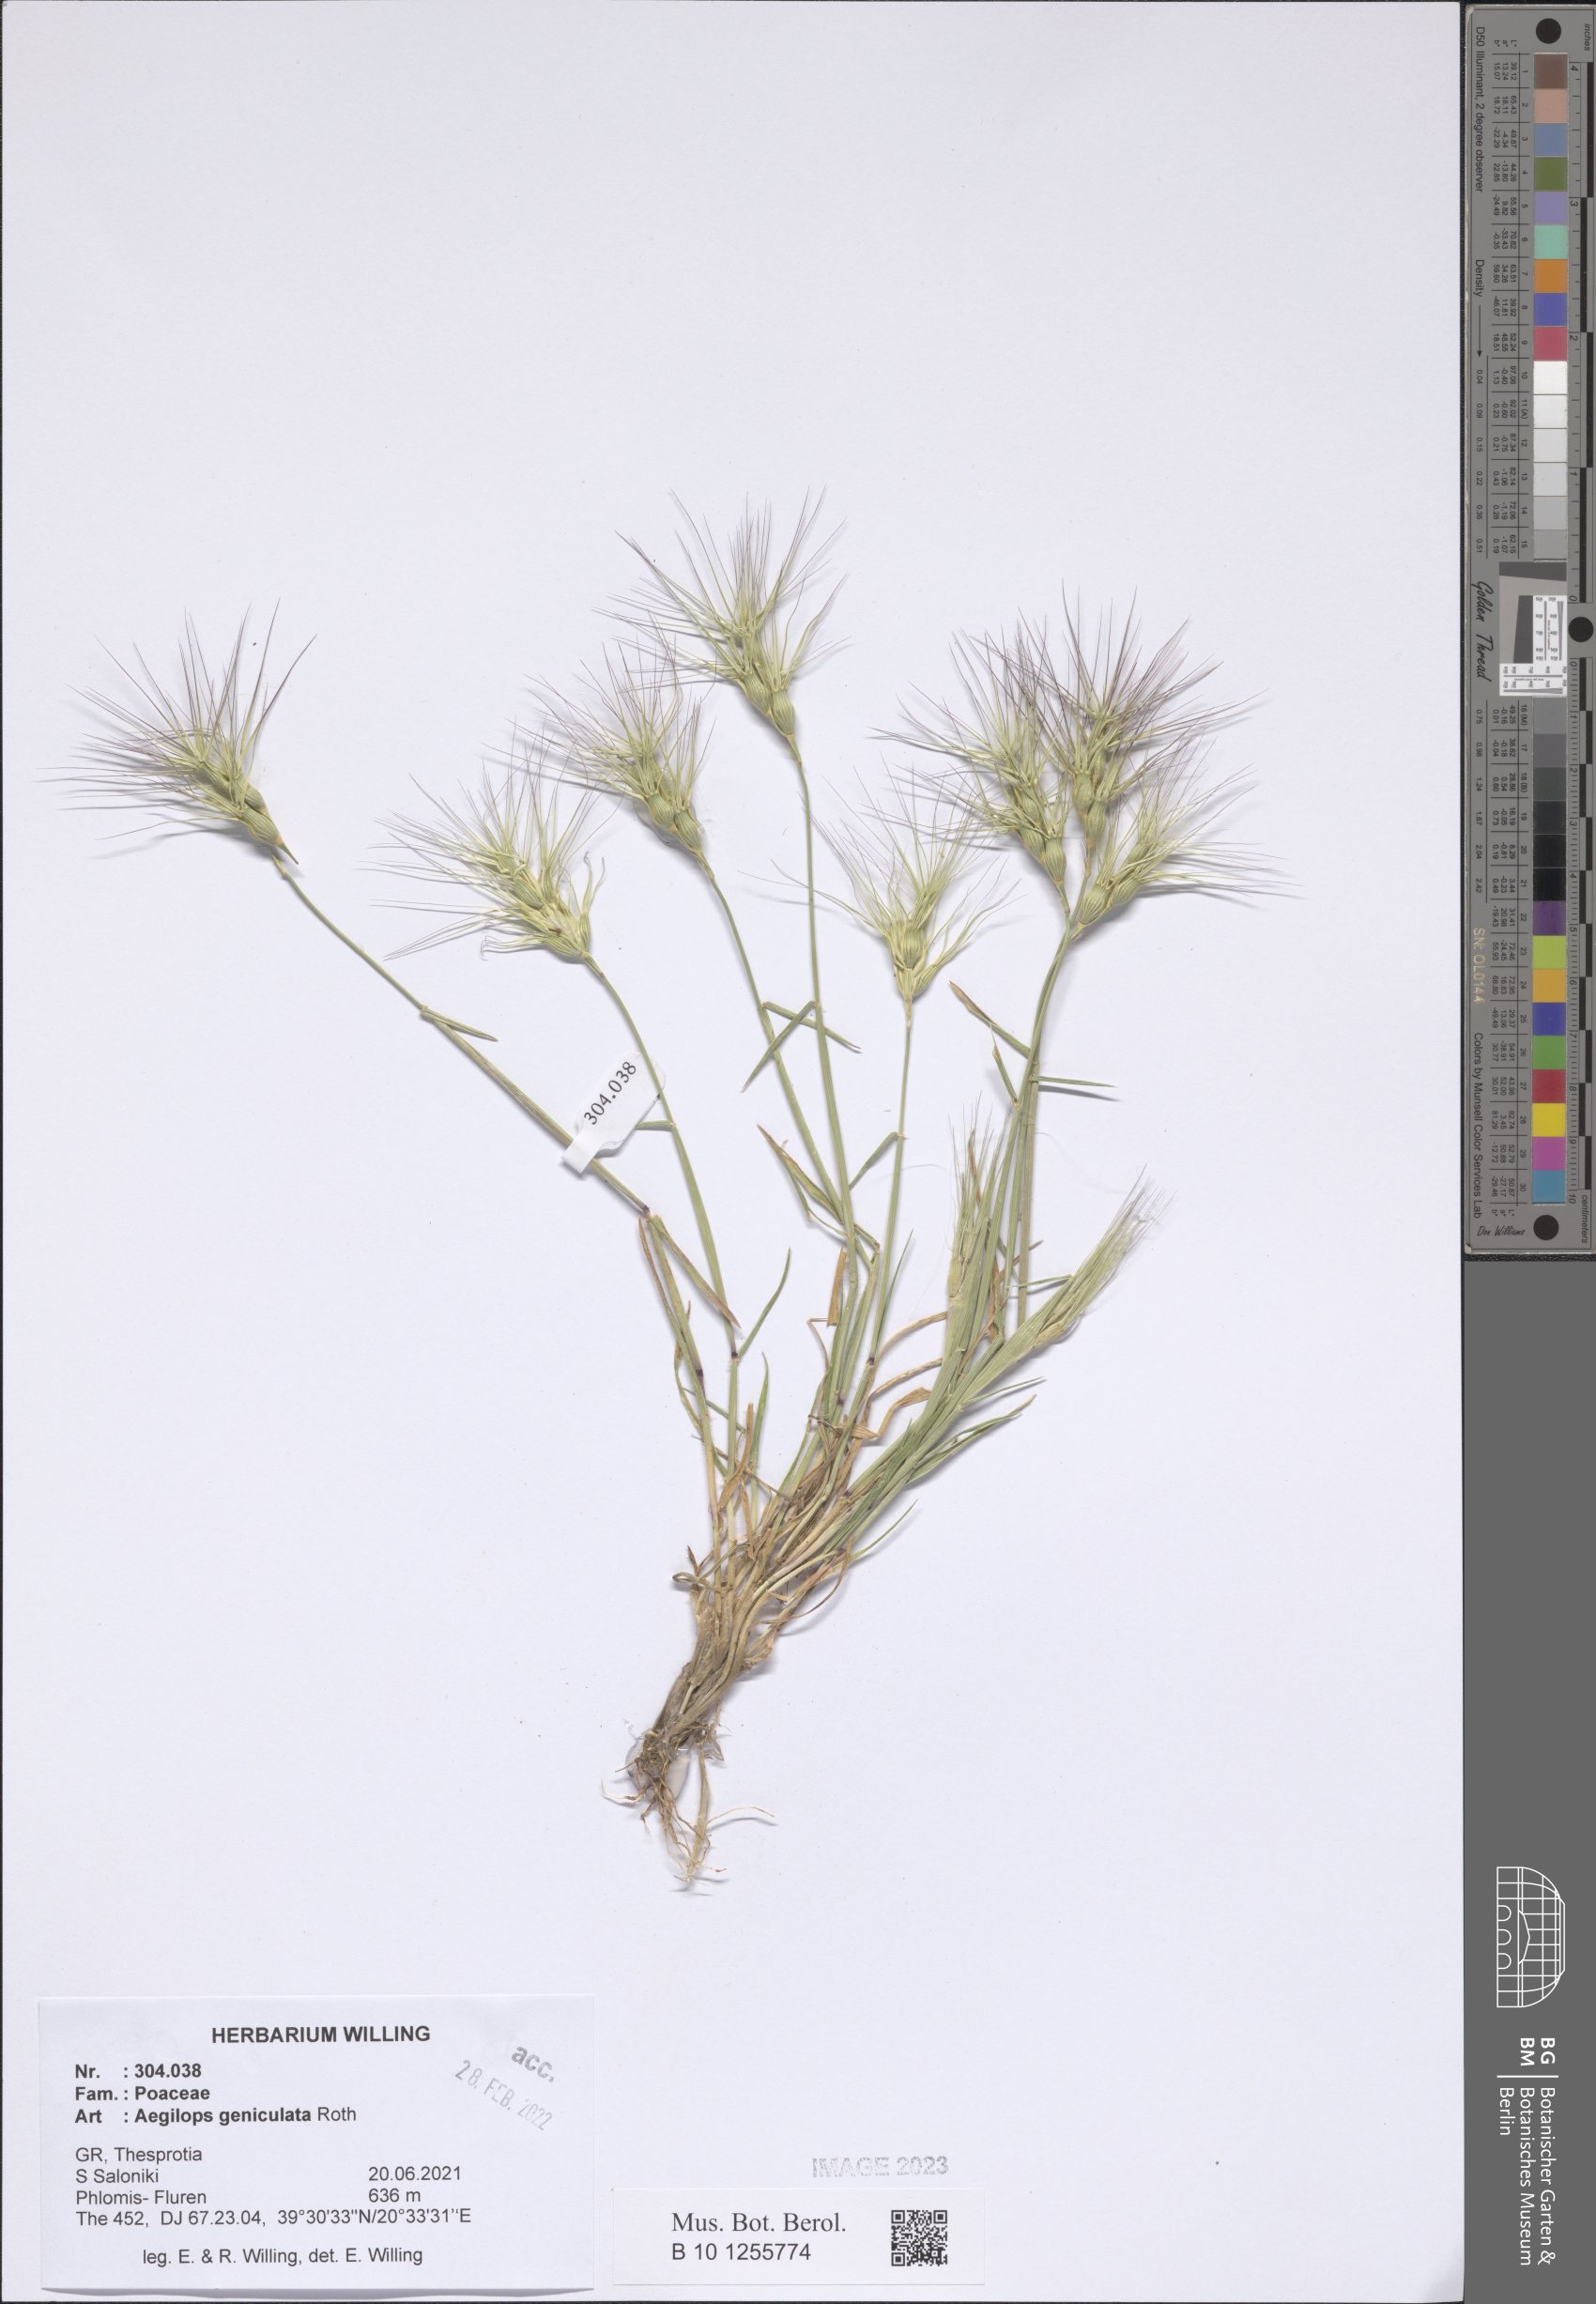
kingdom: Plantae
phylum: Tracheophyta
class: Liliopsida
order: Poales
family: Poaceae
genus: Aegilops
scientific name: Aegilops geniculata
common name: Ovate goat grass
